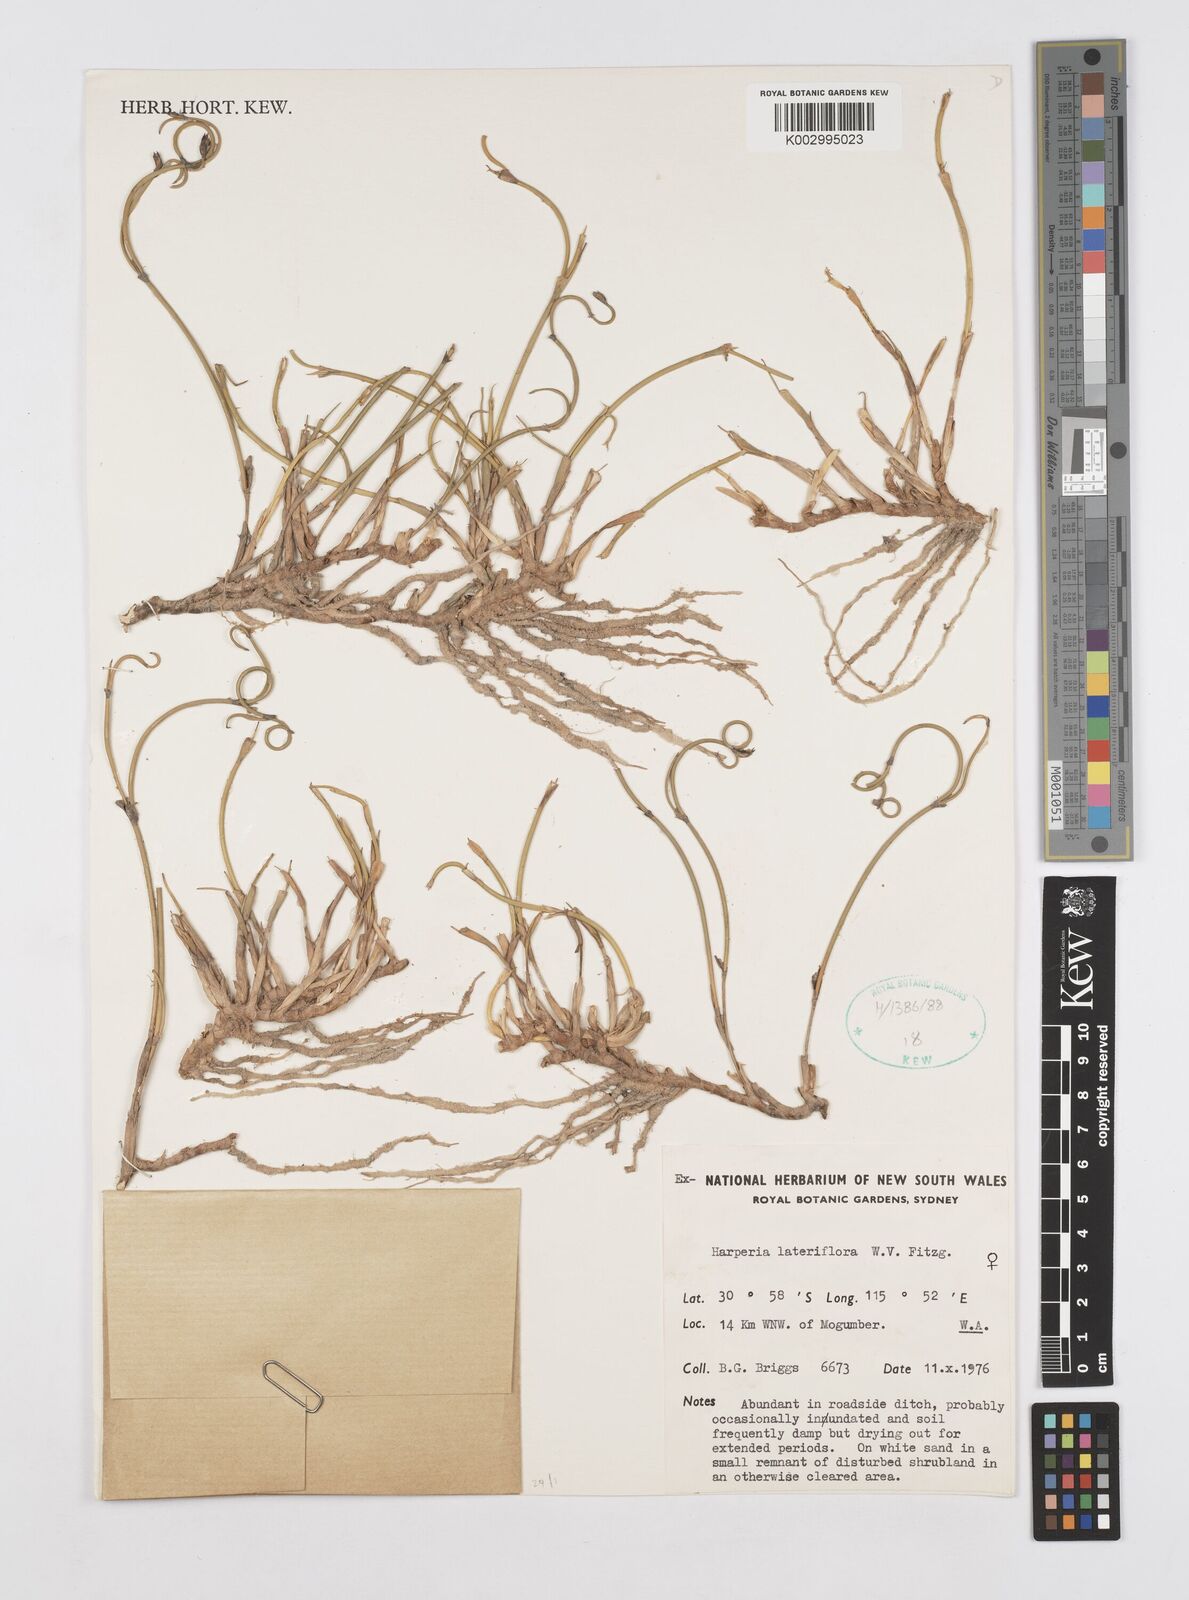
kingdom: Plantae
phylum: Tracheophyta
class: Liliopsida
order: Poales
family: Restionaceae
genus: Desmocladus
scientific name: Desmocladus lateriflorus
